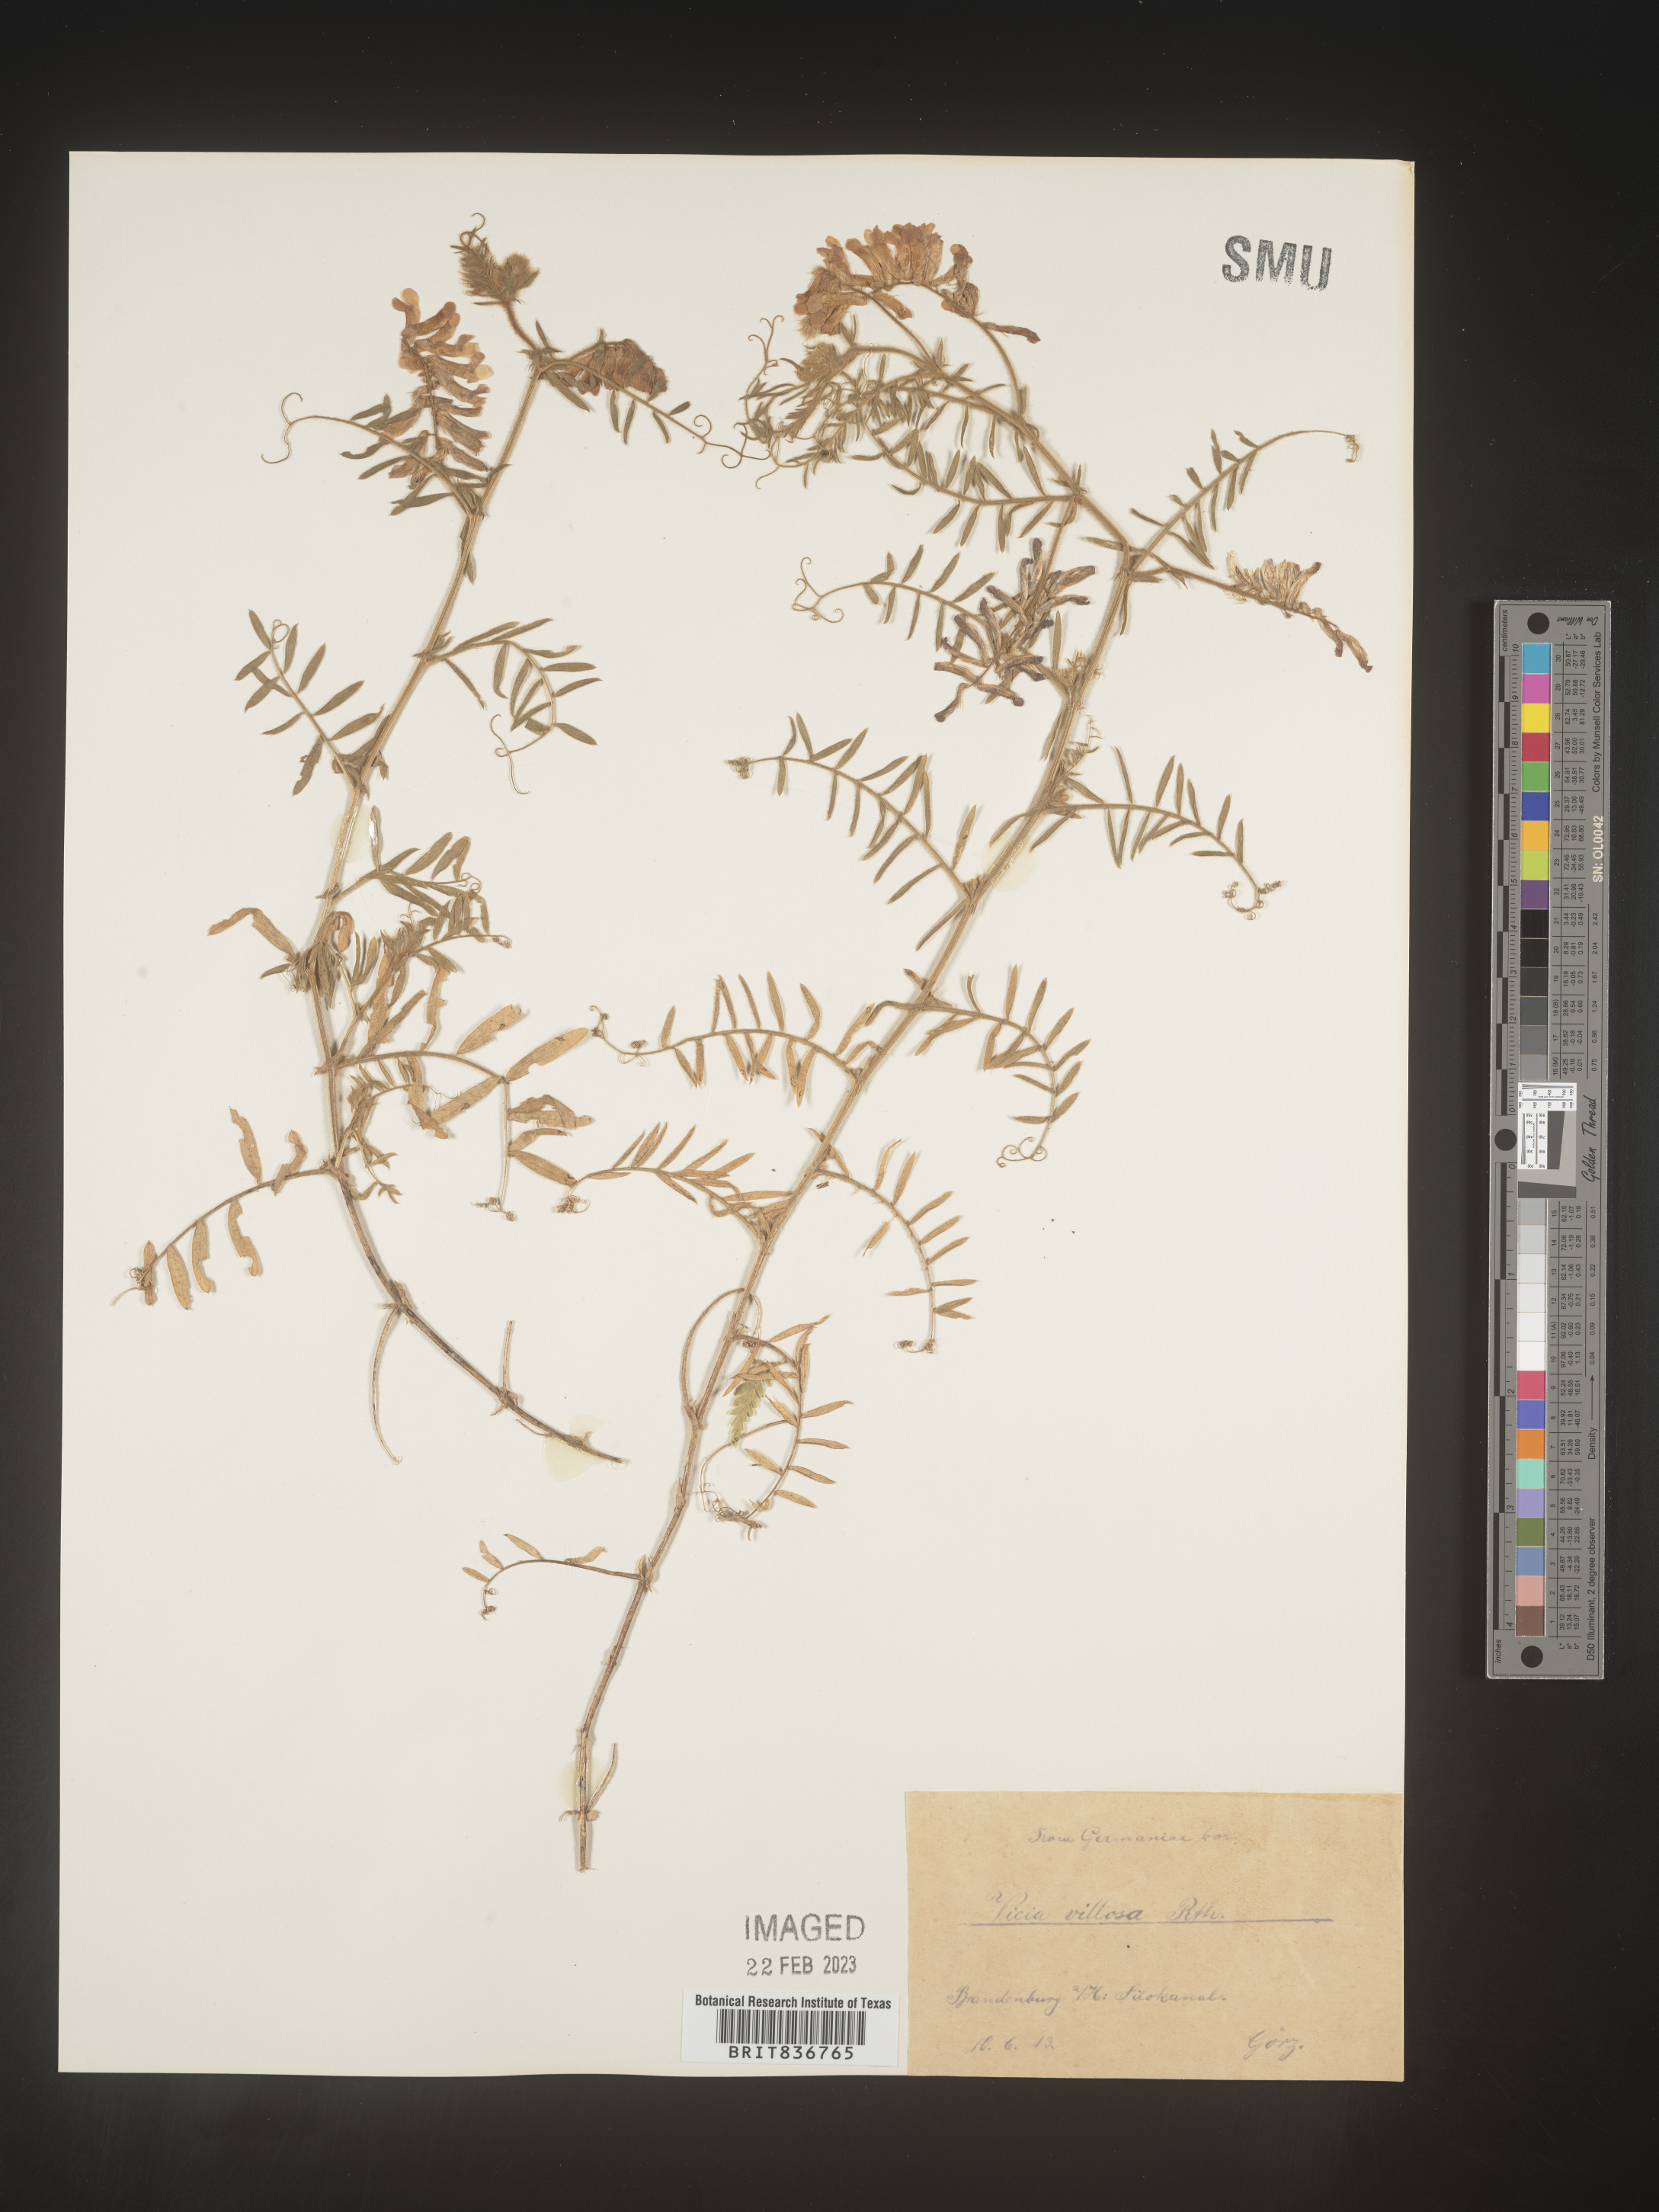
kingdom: Plantae
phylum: Tracheophyta
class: Magnoliopsida
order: Fabales
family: Fabaceae
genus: Vicia
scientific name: Vicia
